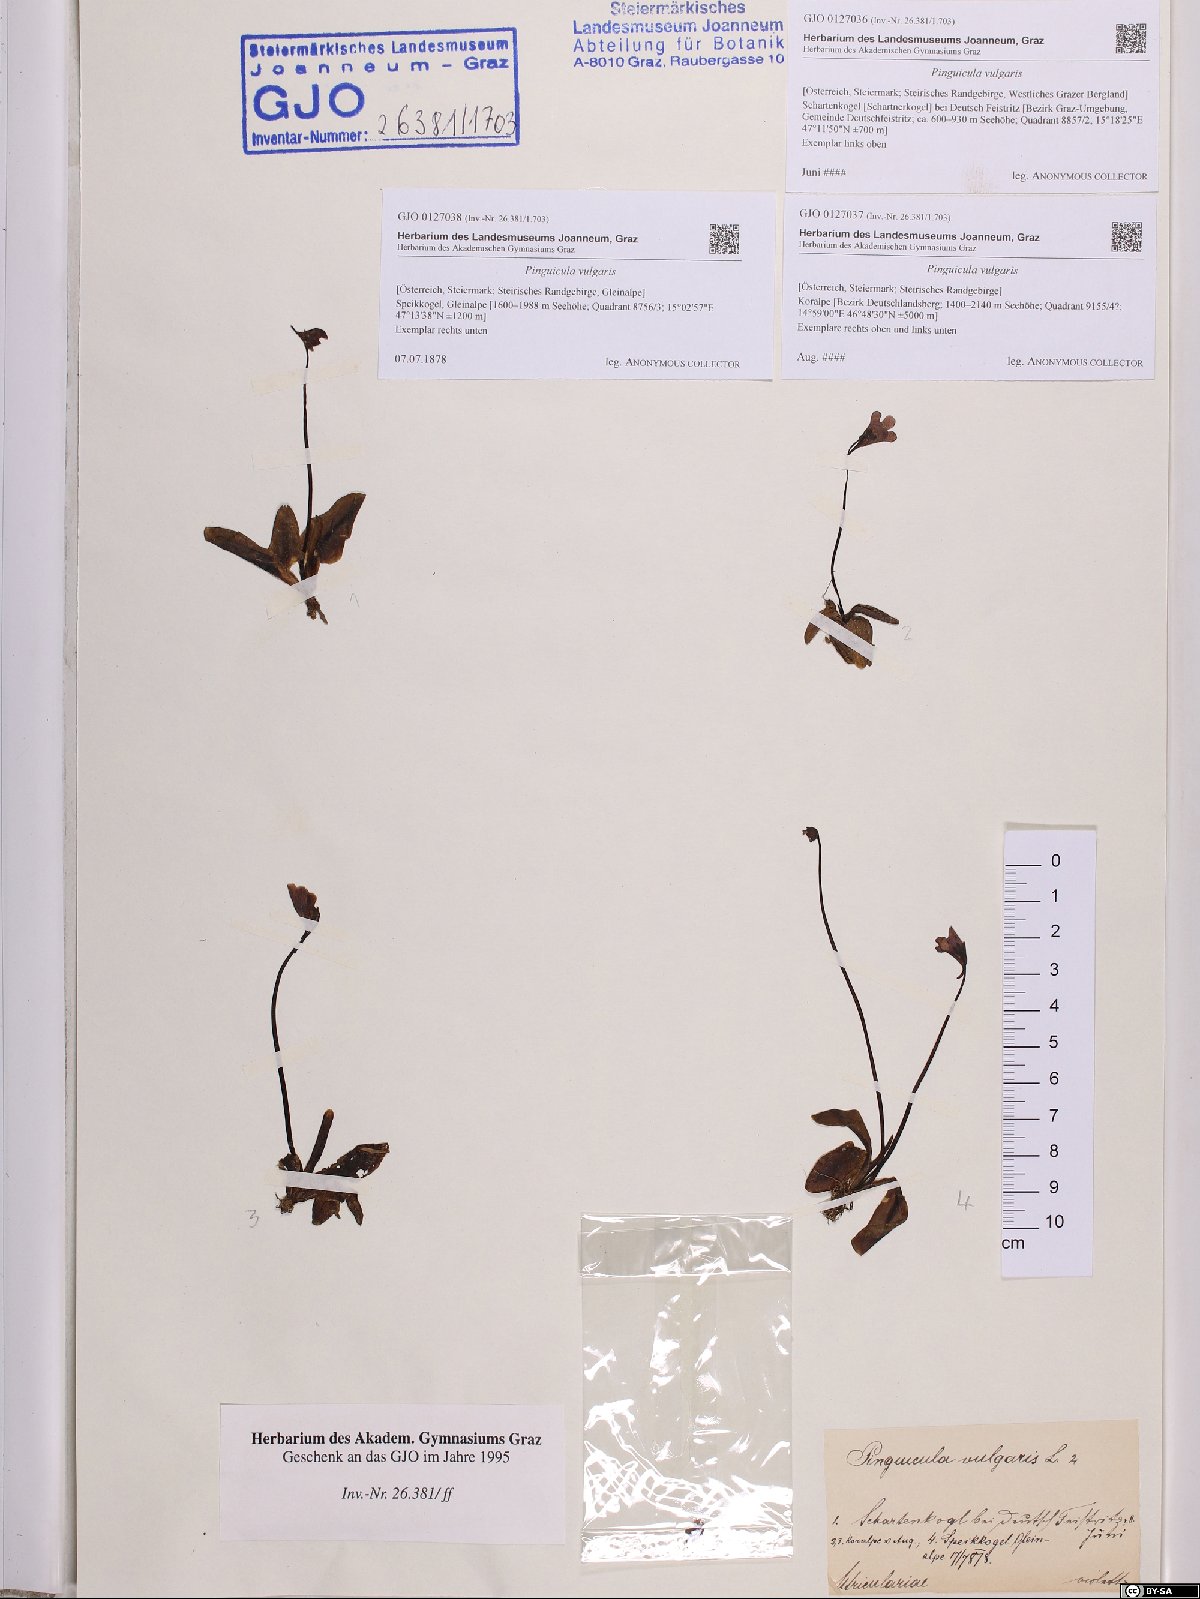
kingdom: Plantae
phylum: Tracheophyta
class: Magnoliopsida
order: Lamiales
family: Lentibulariaceae
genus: Pinguicula
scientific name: Pinguicula vulgaris
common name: Common butterwort
